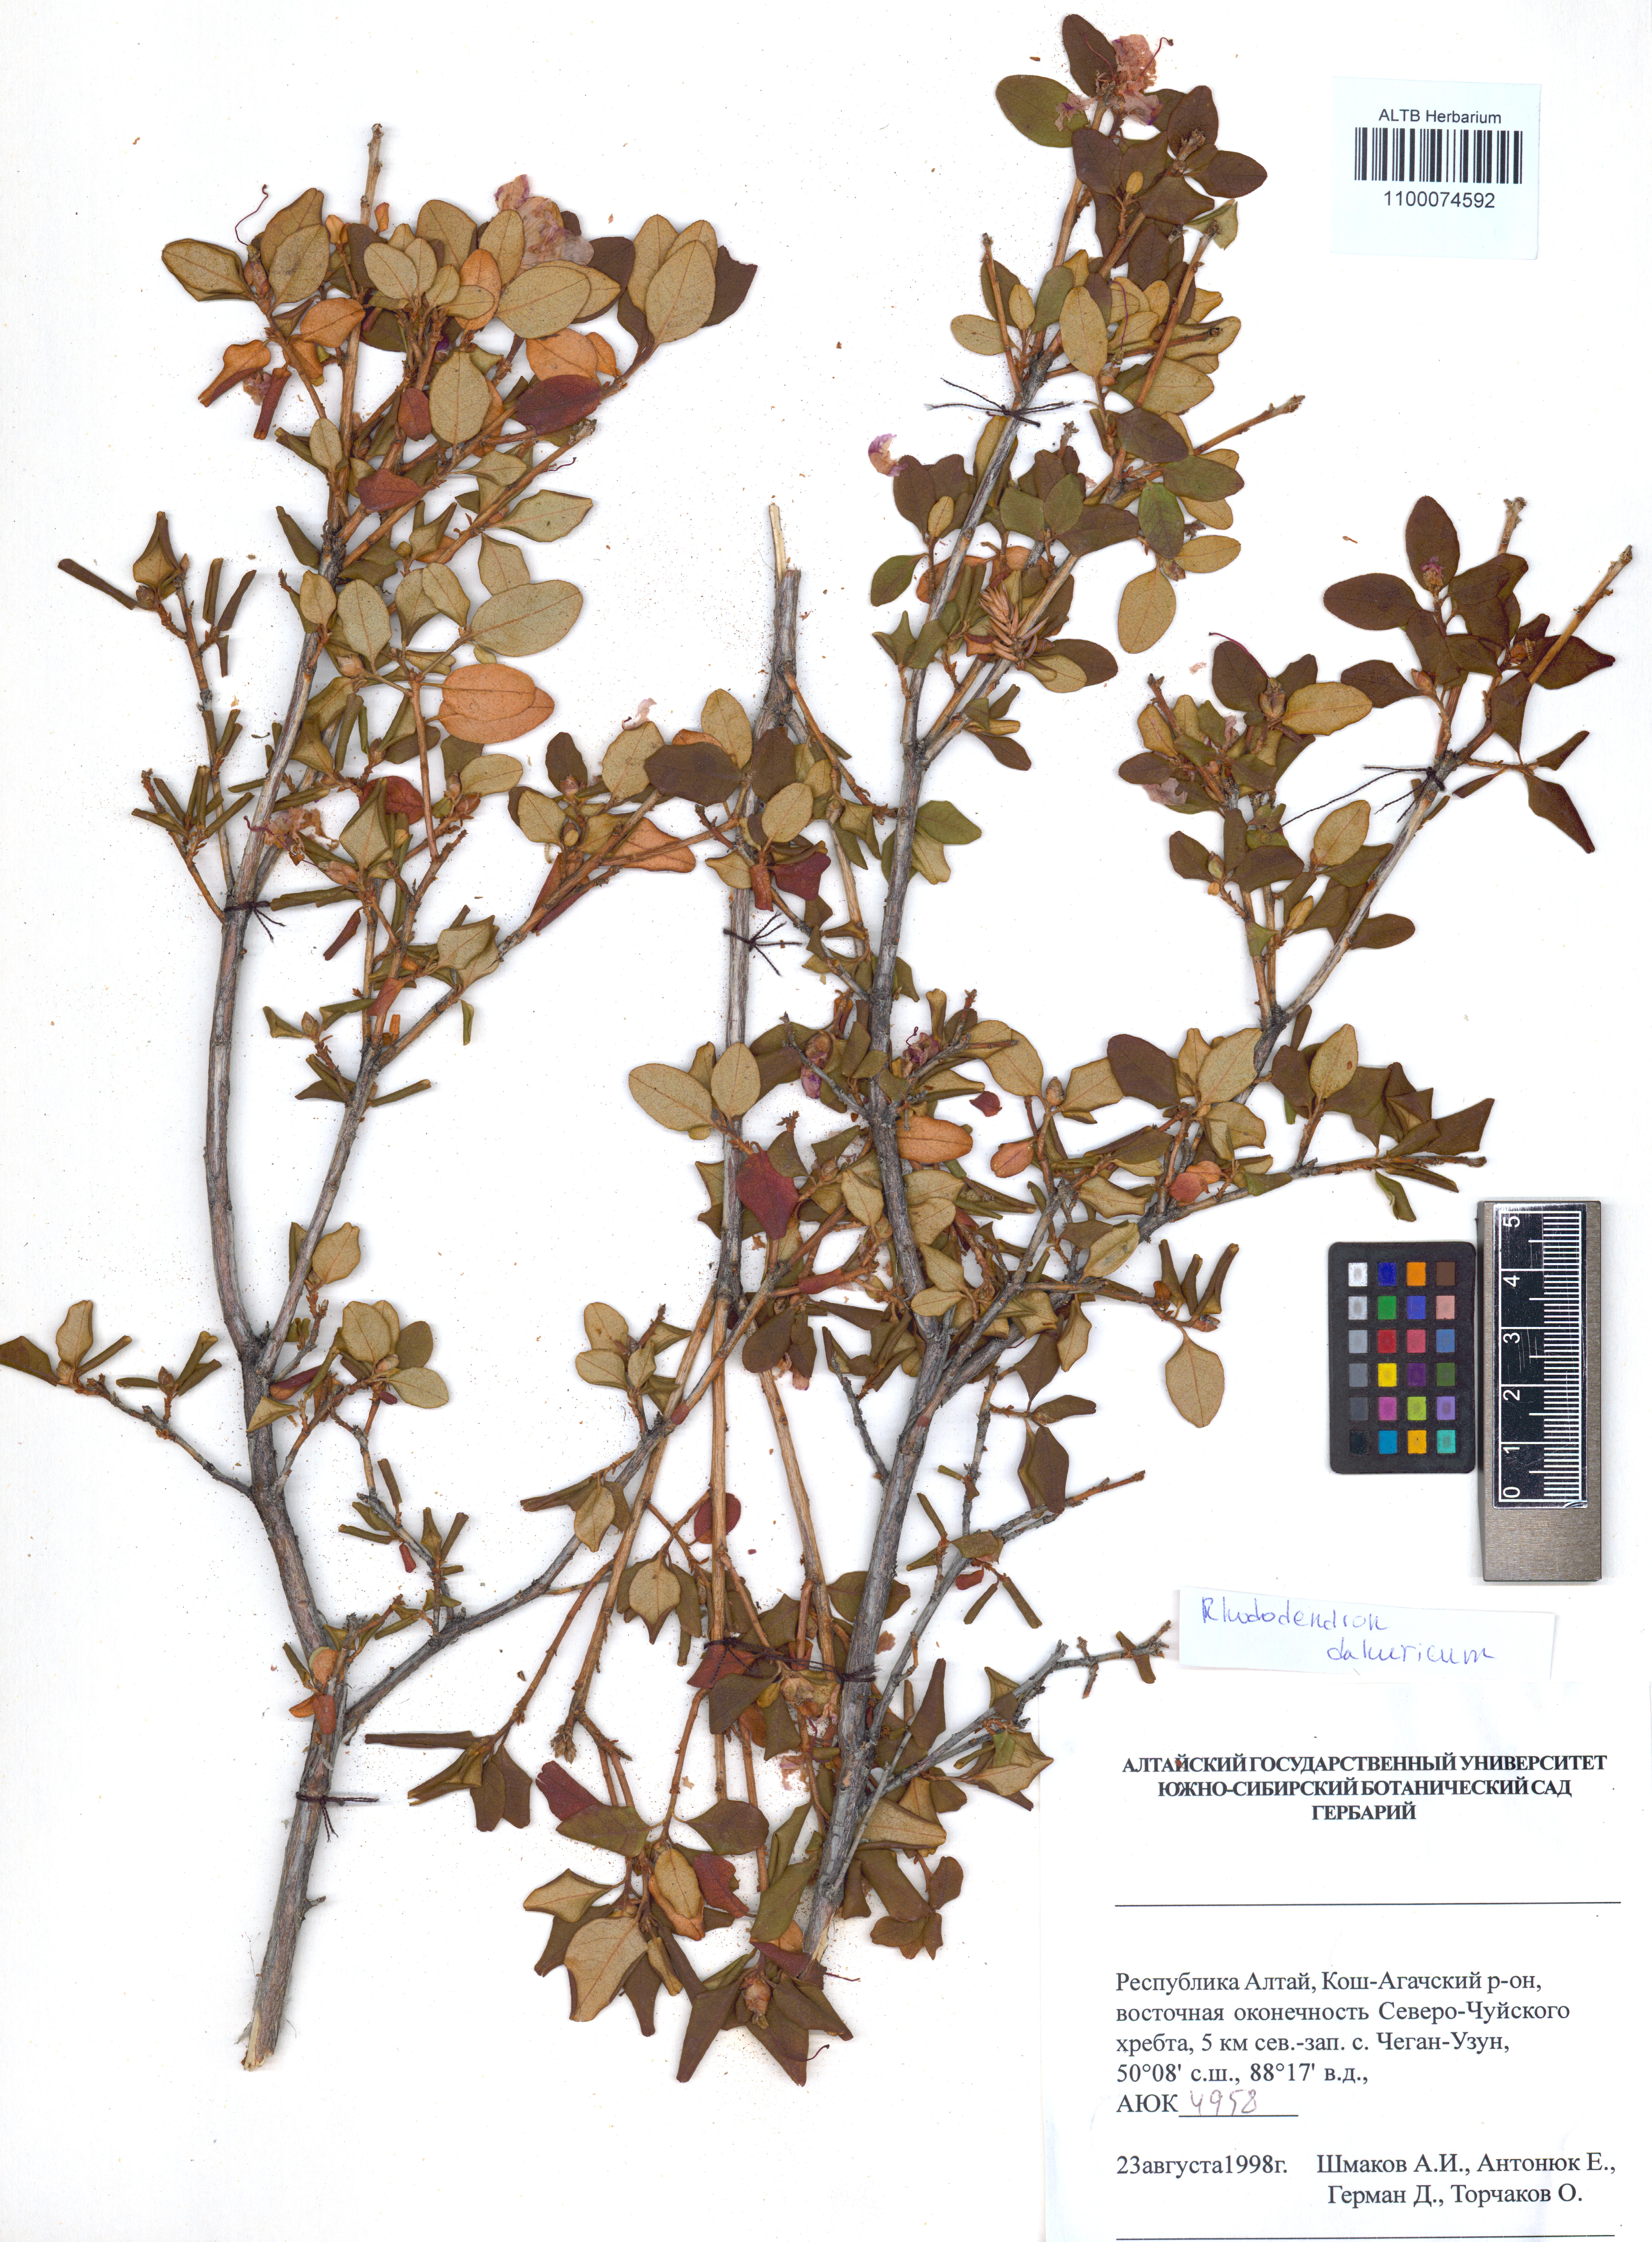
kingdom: Plantae
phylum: Tracheophyta
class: Magnoliopsida
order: Ericales
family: Ericaceae
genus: Rhododendron
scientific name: Rhododendron dauricum
